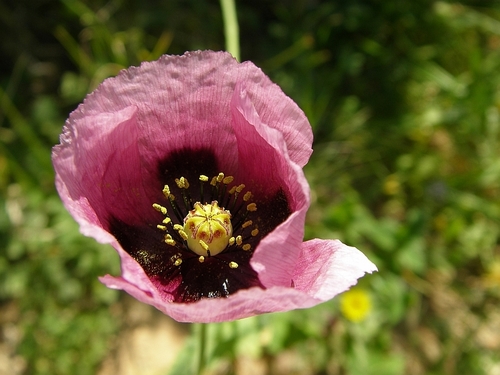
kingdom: Plantae
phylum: Tracheophyta
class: Magnoliopsida
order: Ranunculales
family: Papaveraceae
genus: Papaver
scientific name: Papaver somniferum
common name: Opium poppy
